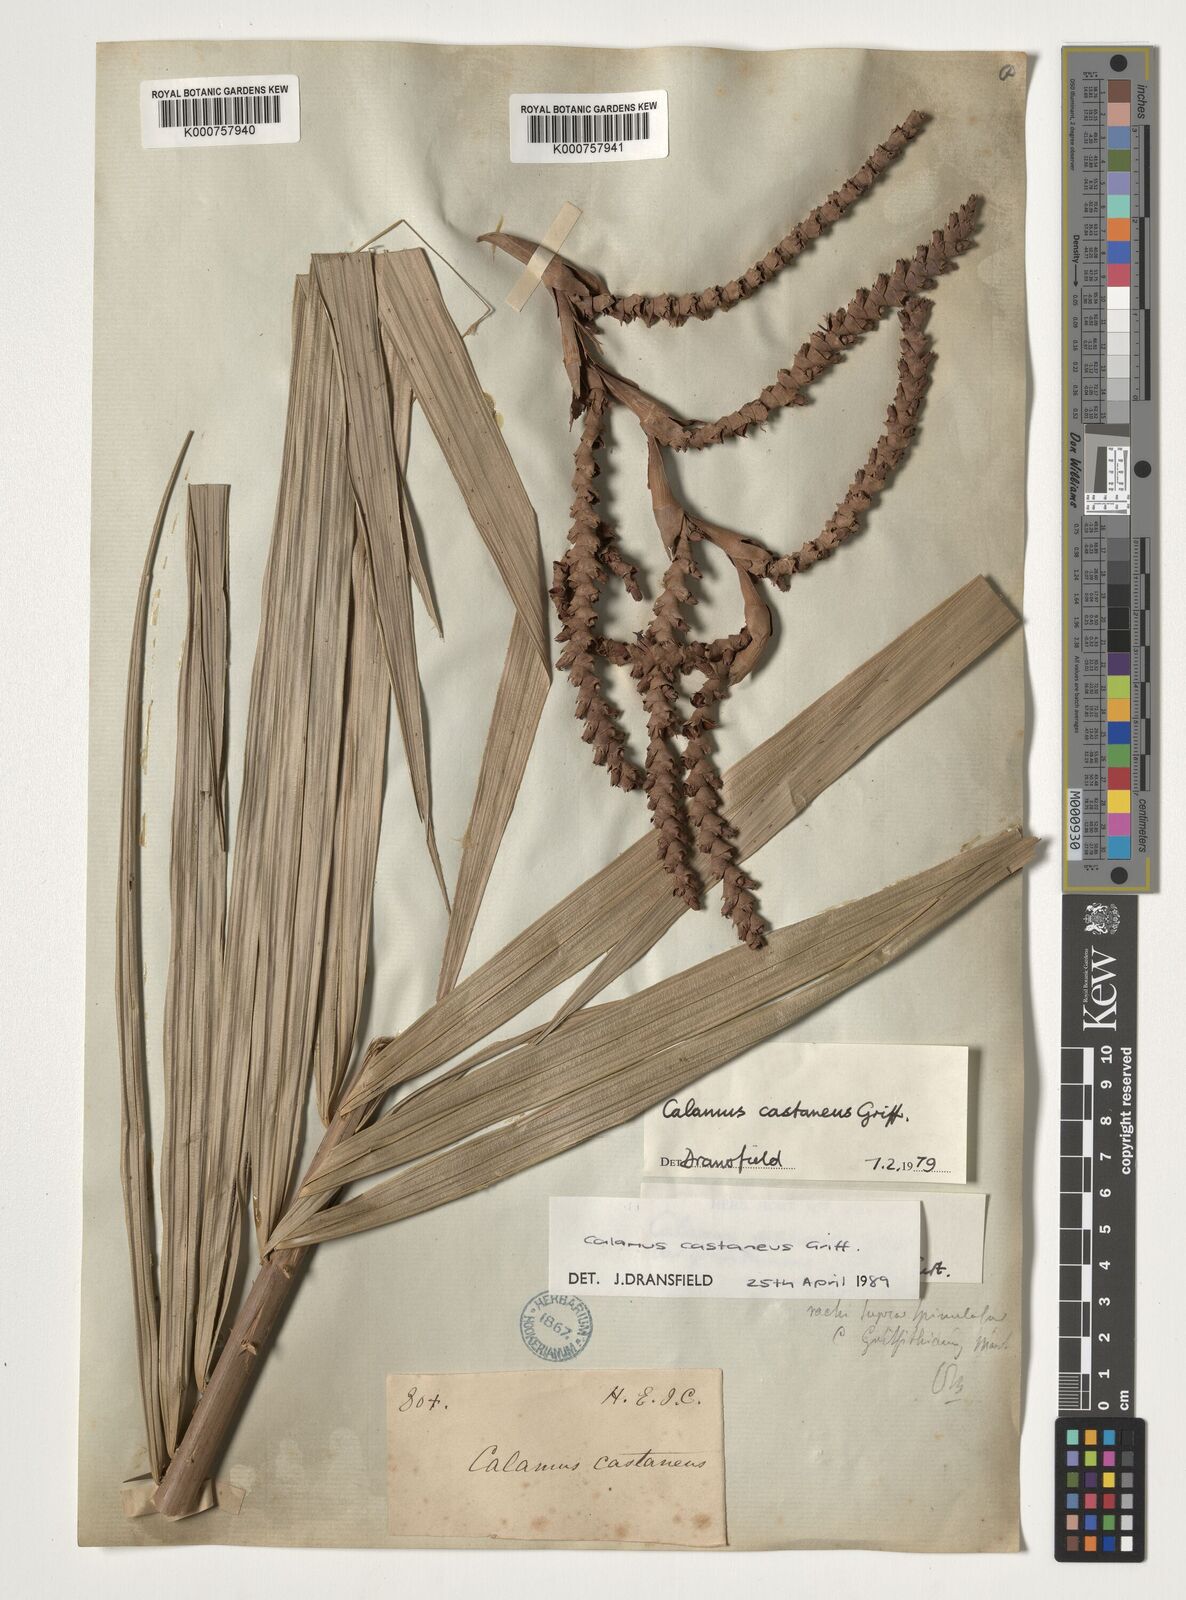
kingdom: Plantae
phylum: Tracheophyta
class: Liliopsida
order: Arecales
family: Arecaceae
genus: Calamus
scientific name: Calamus castaneus
